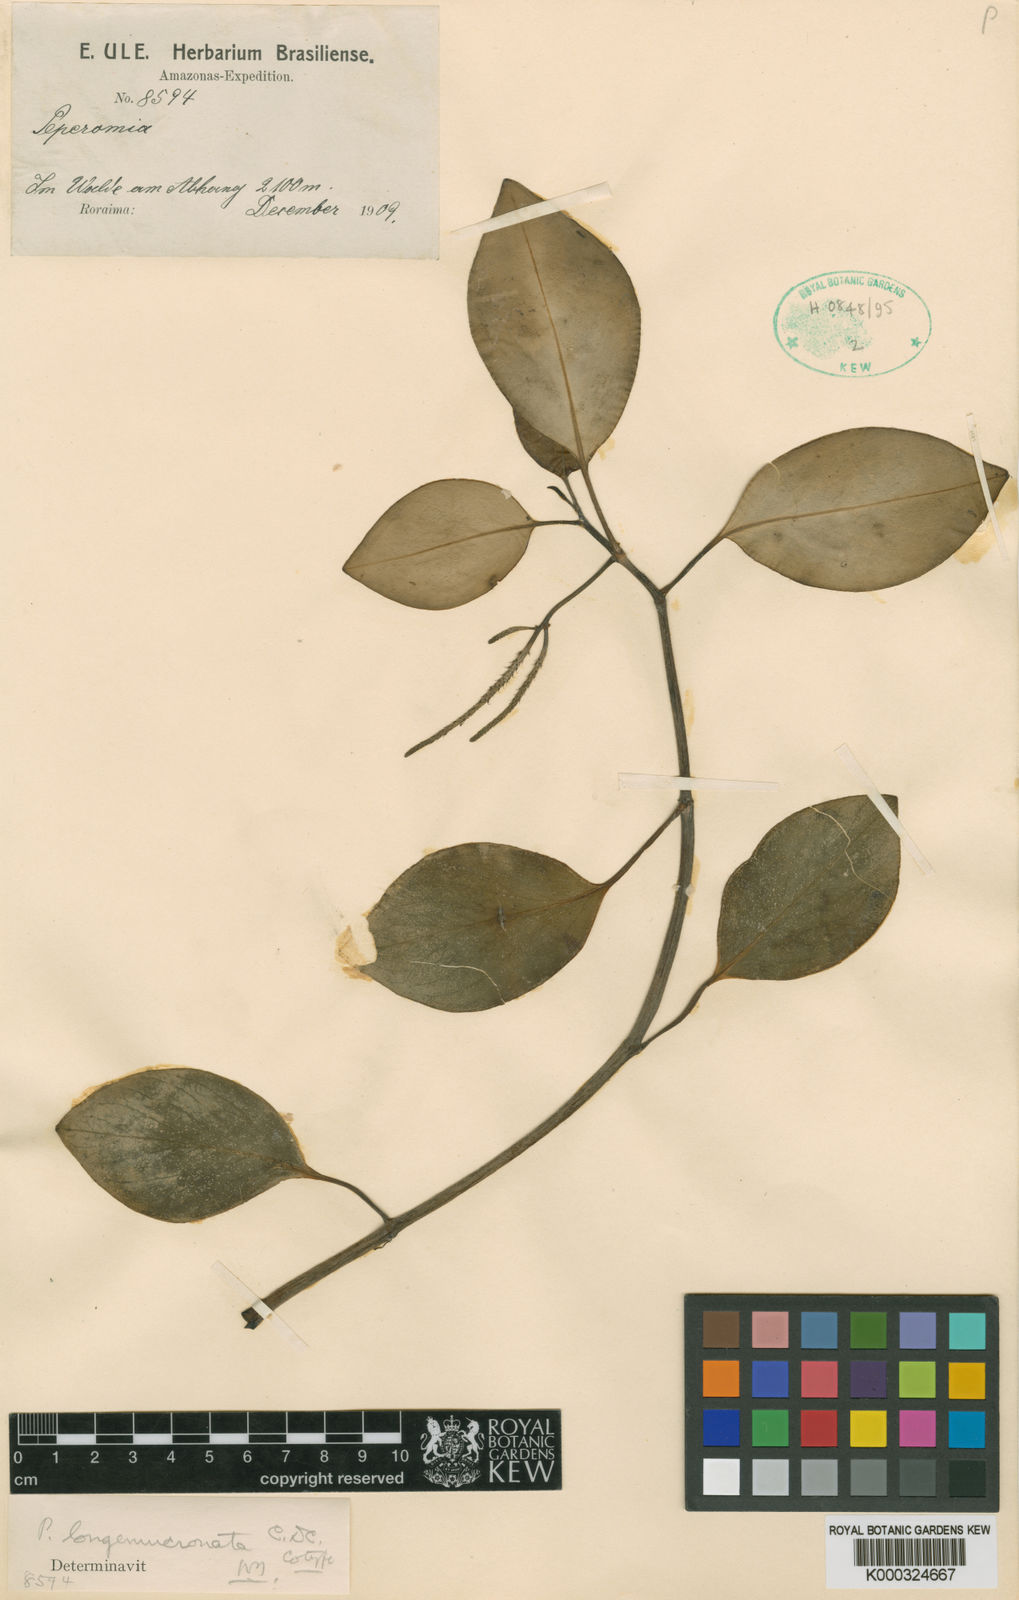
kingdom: Plantae
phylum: Tracheophyta
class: Magnoliopsida
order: Piperales
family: Piperaceae
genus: Peperomia
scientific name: Peperomia alpina
